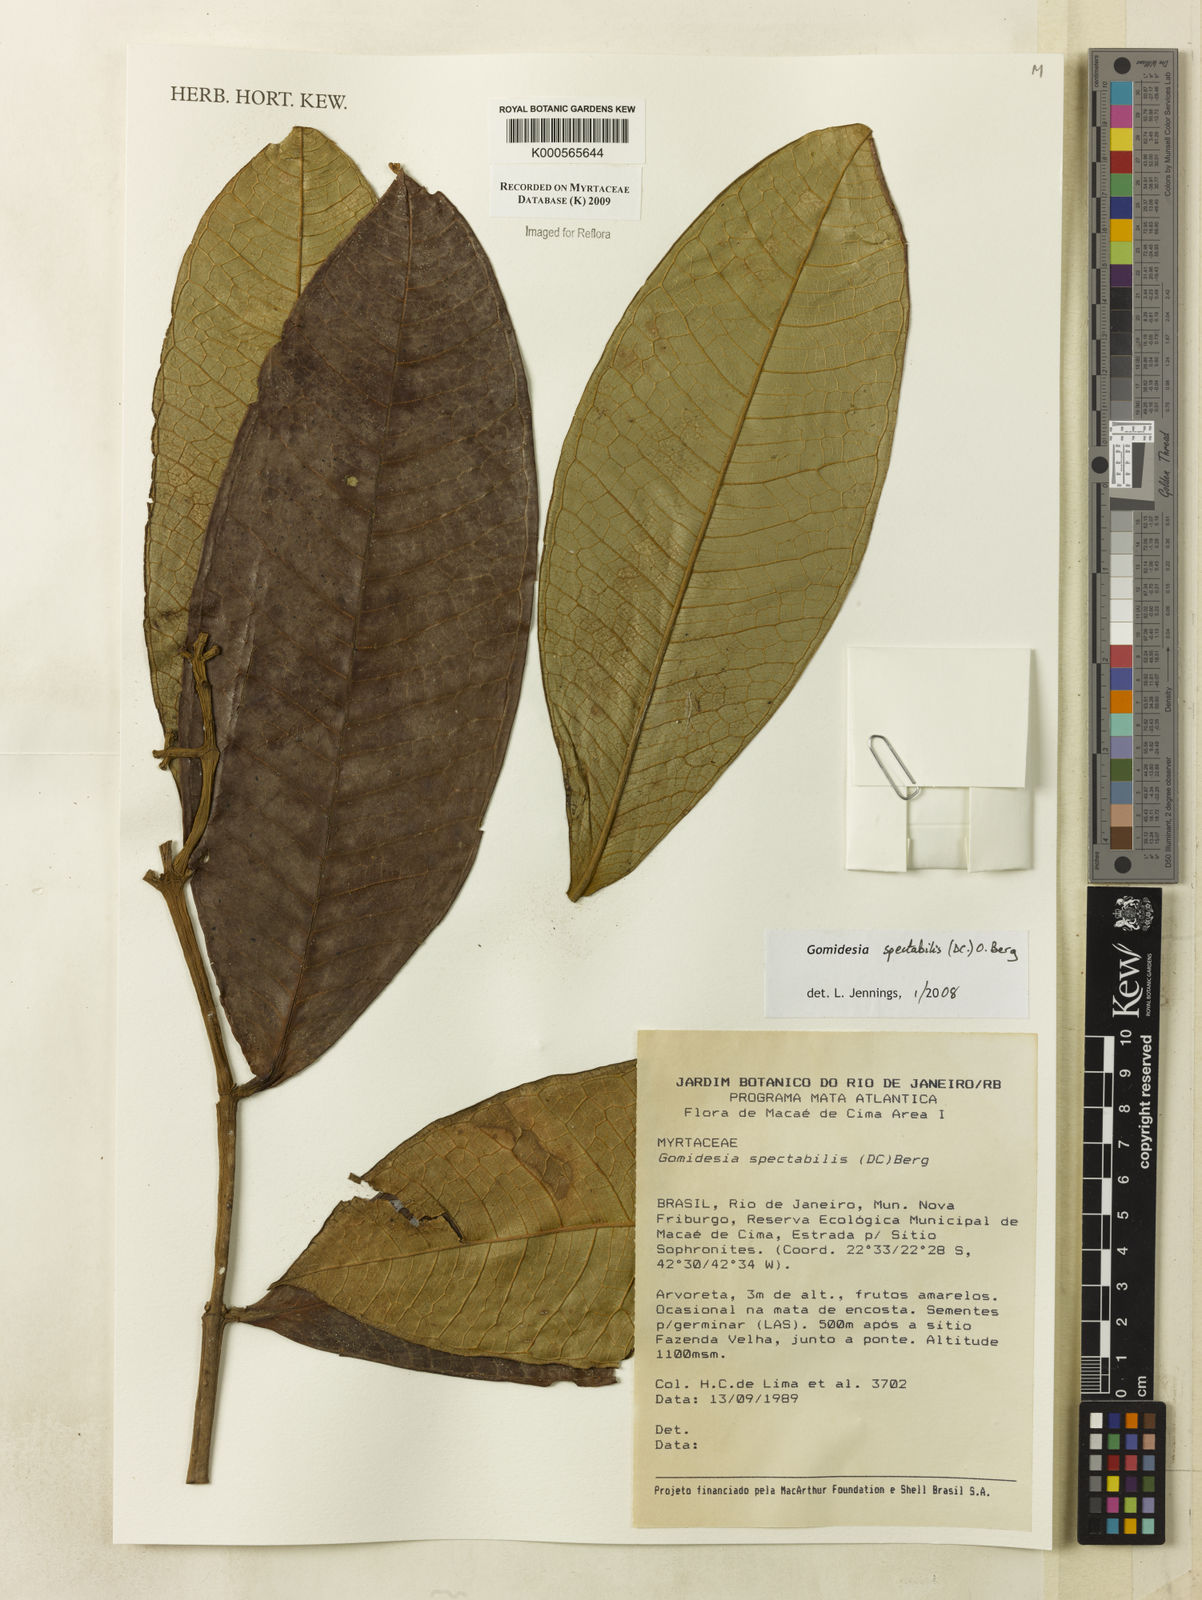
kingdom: Plantae
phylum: Tracheophyta
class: Magnoliopsida
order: Myrtales
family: Myrtaceae
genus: Myrcia
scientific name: Myrcia spectabilis
